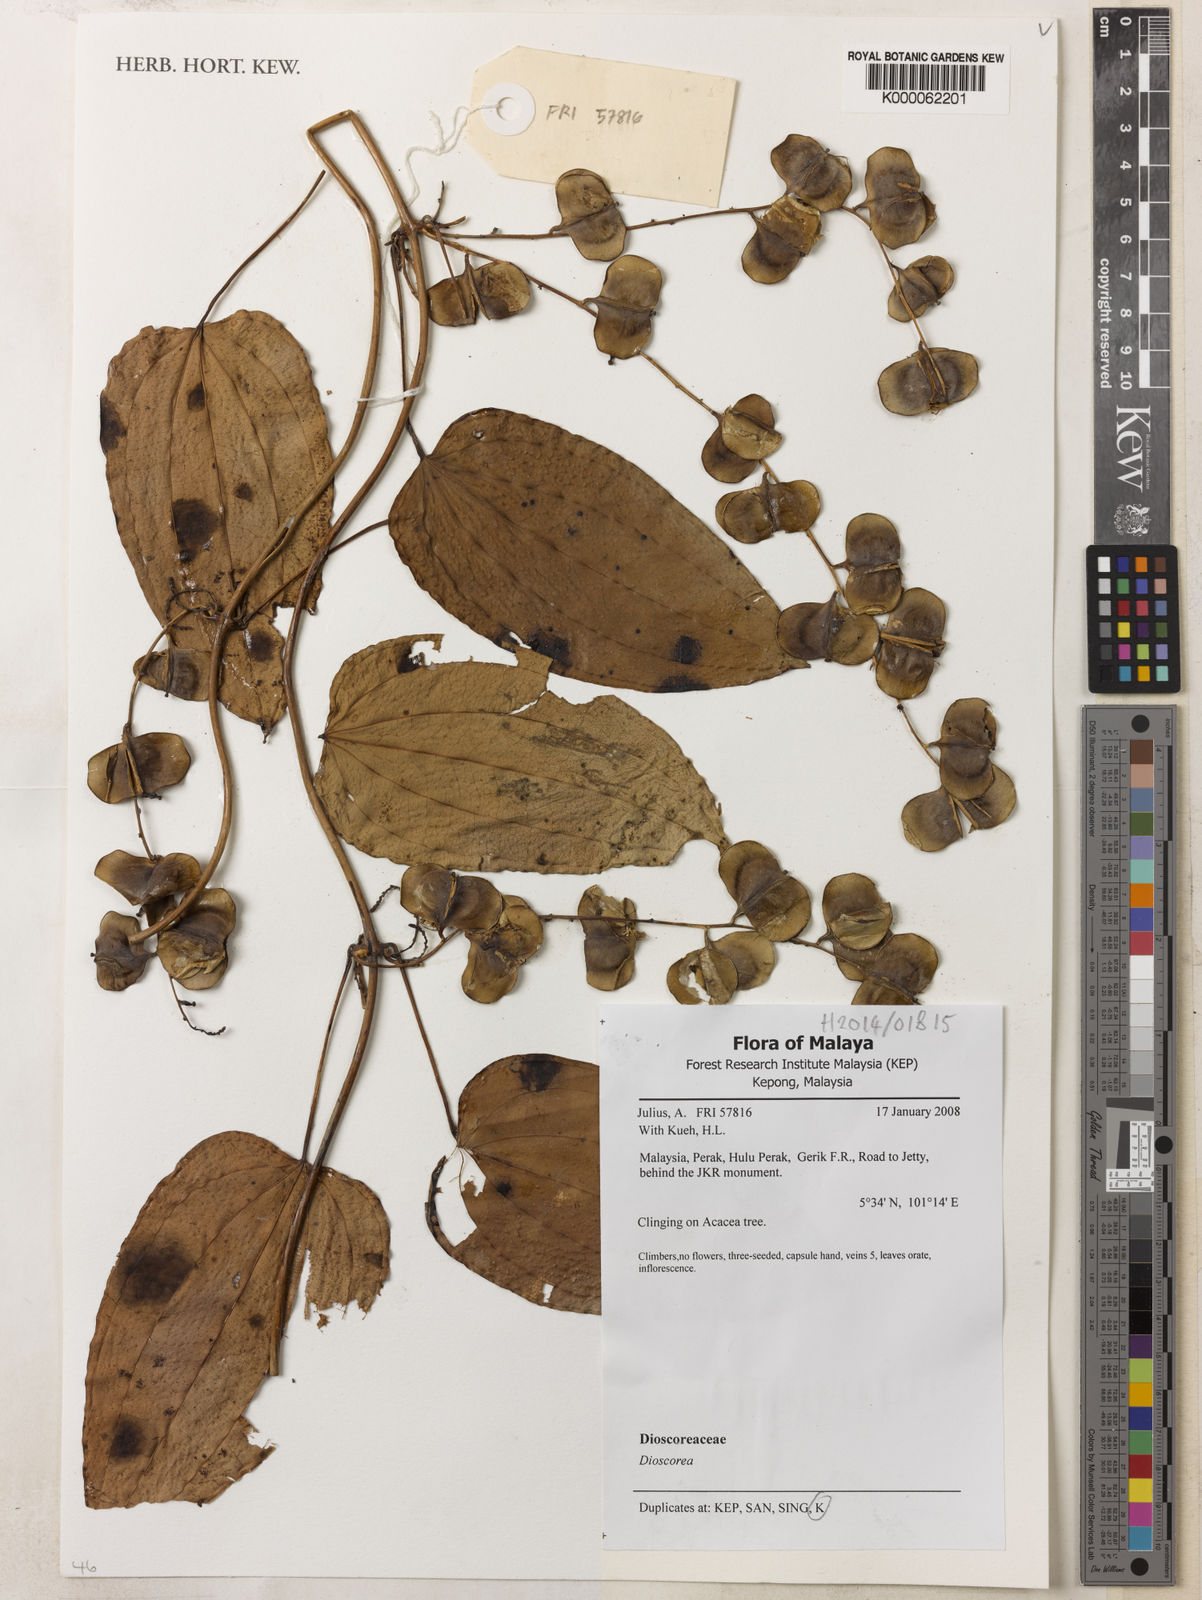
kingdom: Plantae
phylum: Tracheophyta
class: Liliopsida
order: Dioscoreales
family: Dioscoreaceae
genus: Dioscorea
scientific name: Dioscorea
